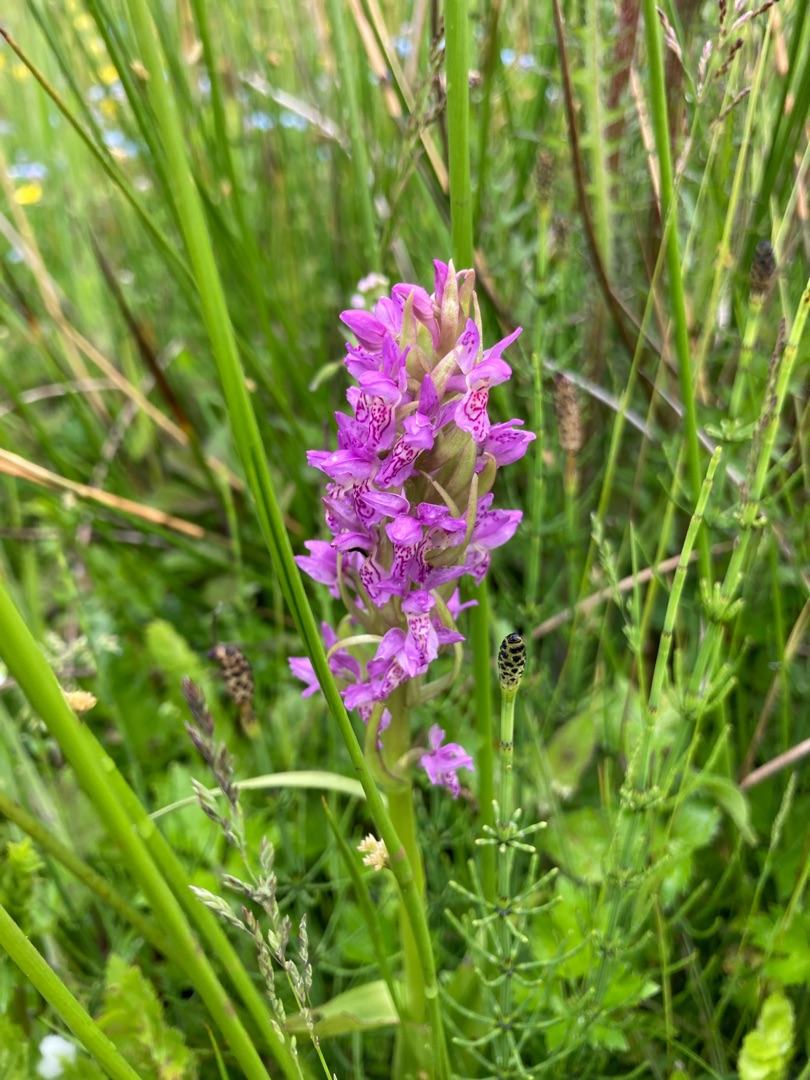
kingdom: Plantae
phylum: Tracheophyta
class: Liliopsida
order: Asparagales
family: Orchidaceae
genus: Dactylorhiza
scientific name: Dactylorhiza incarnata
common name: Kødfarvet gøgeurt
